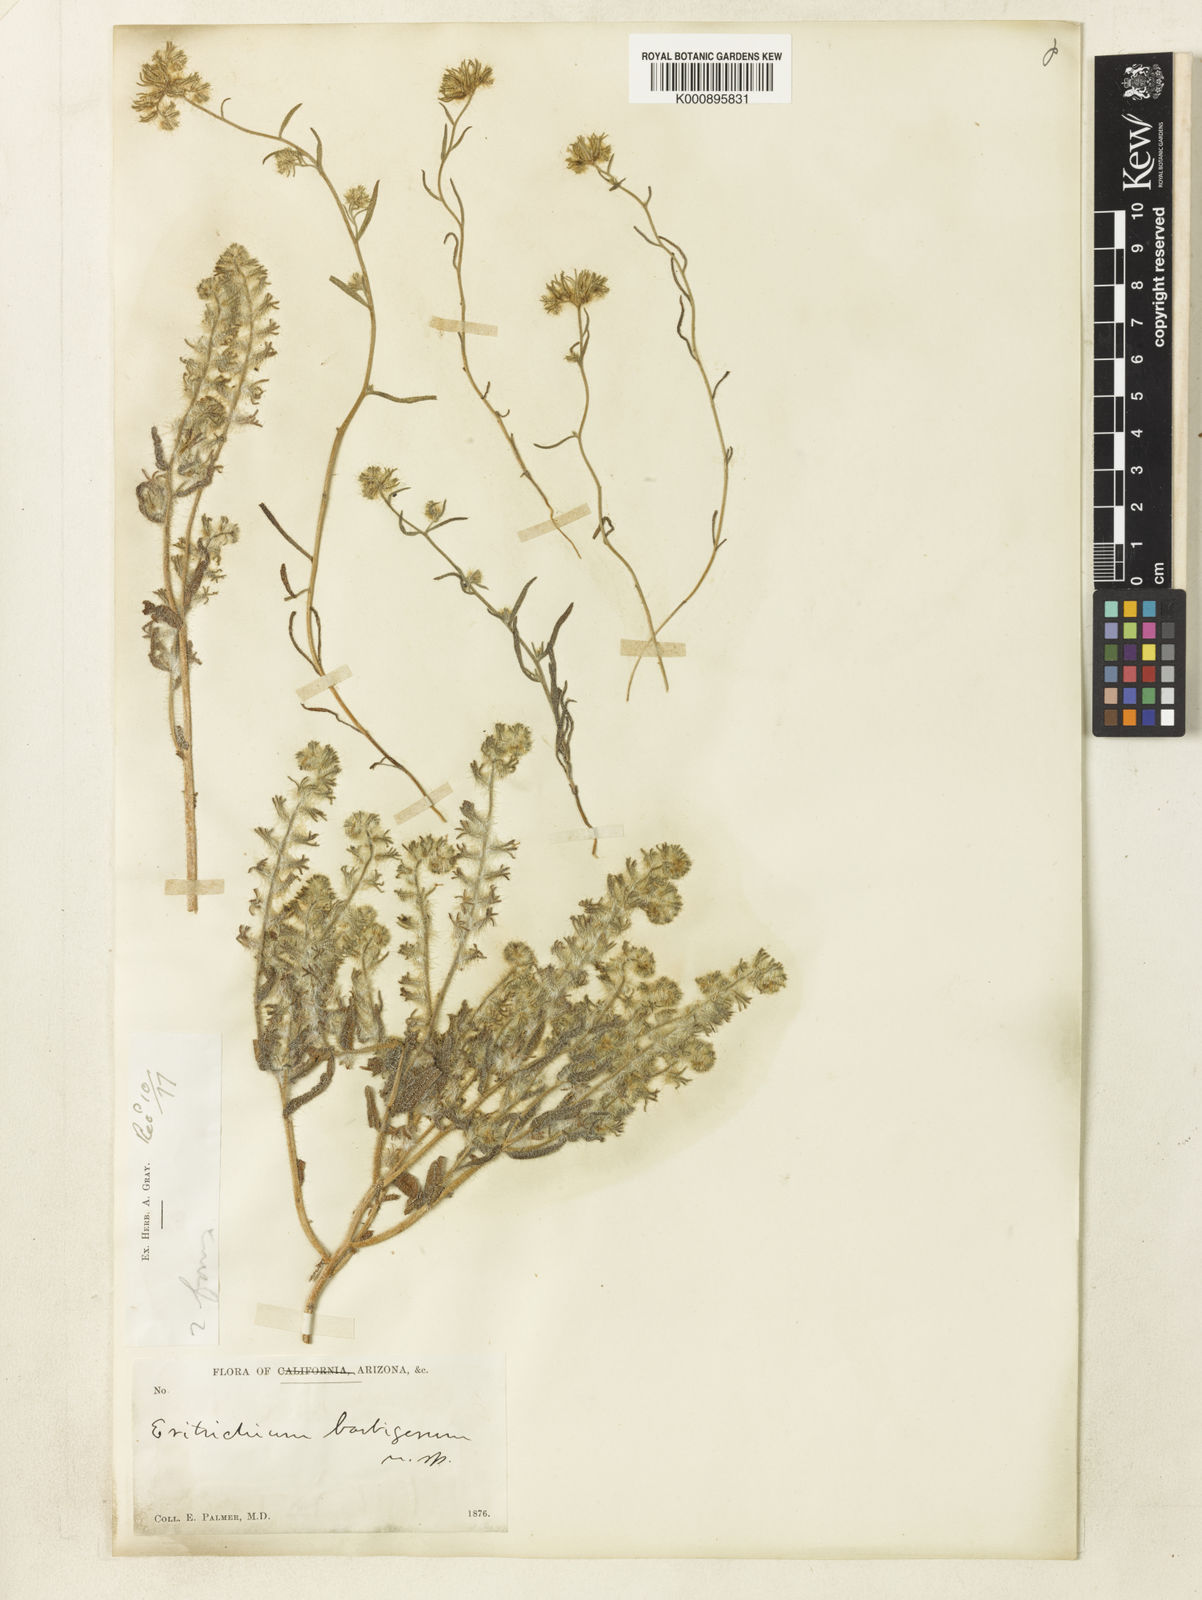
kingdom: Plantae
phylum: Tracheophyta
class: Magnoliopsida
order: Boraginales
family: Boraginaceae
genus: Cryptantha
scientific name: Cryptantha barbigera
